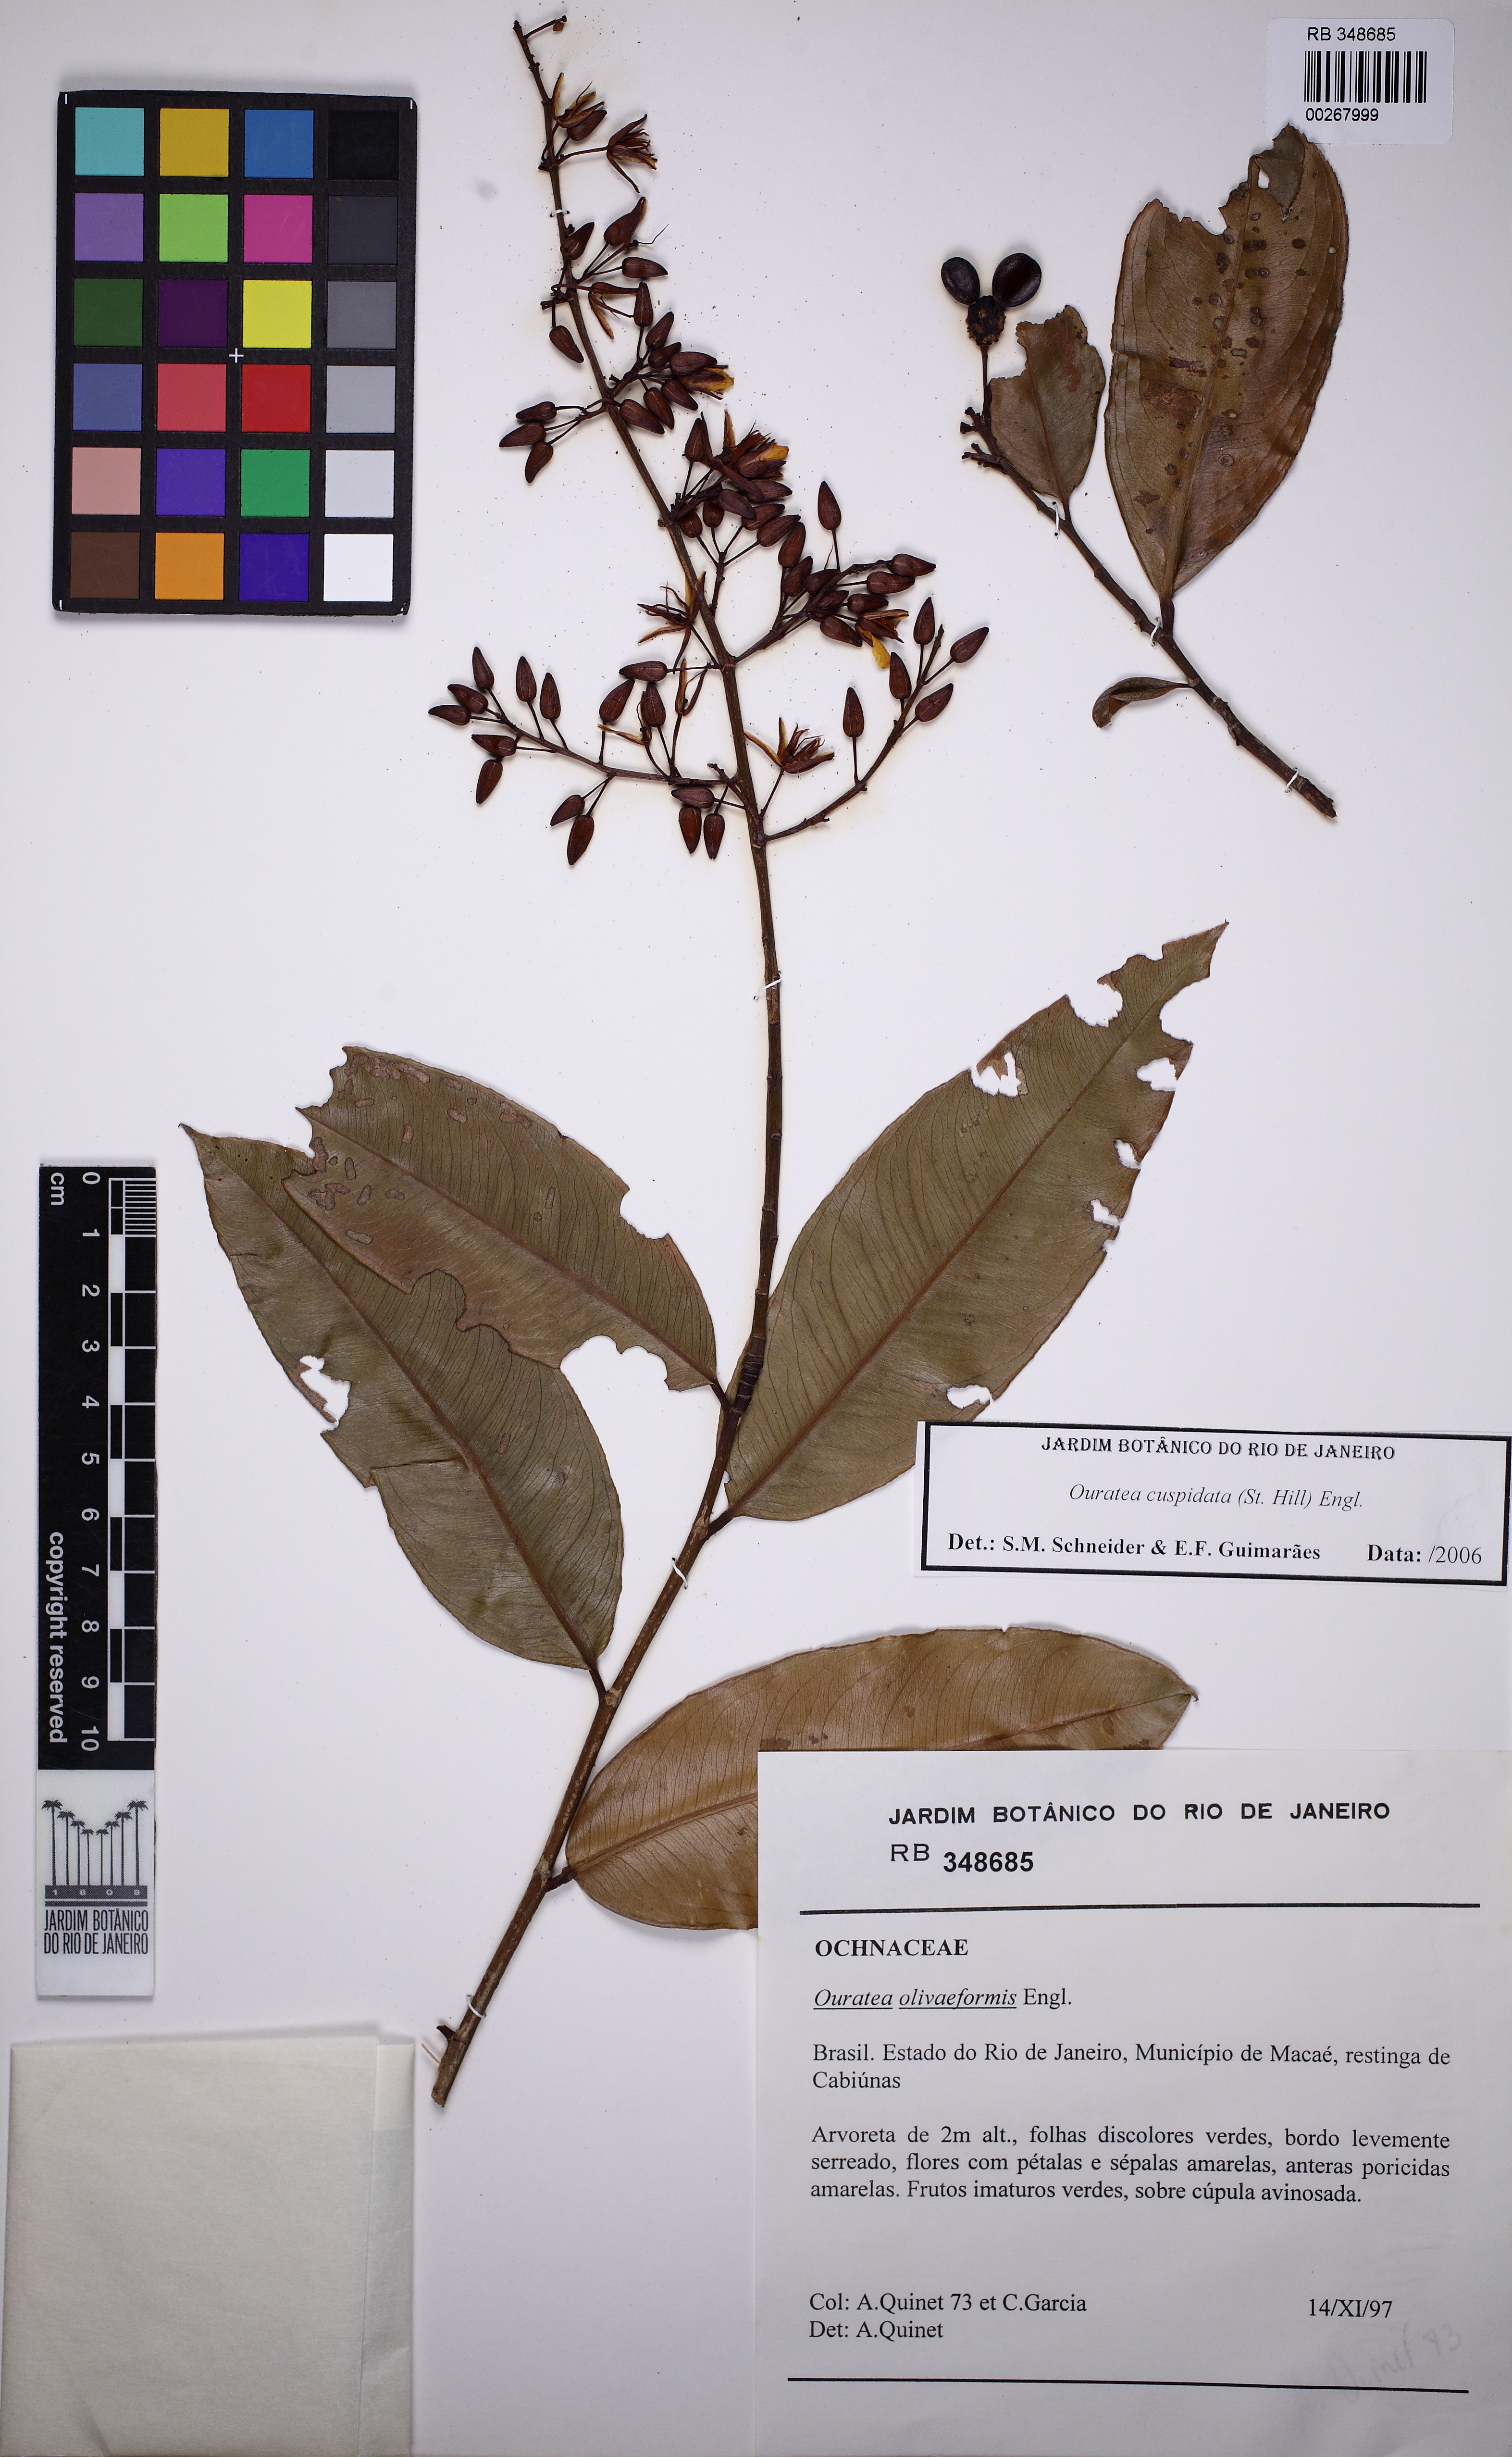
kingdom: Plantae
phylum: Tracheophyta
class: Magnoliopsida
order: Malpighiales
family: Ochnaceae
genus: Ouratea
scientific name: Ouratea cuspidata
